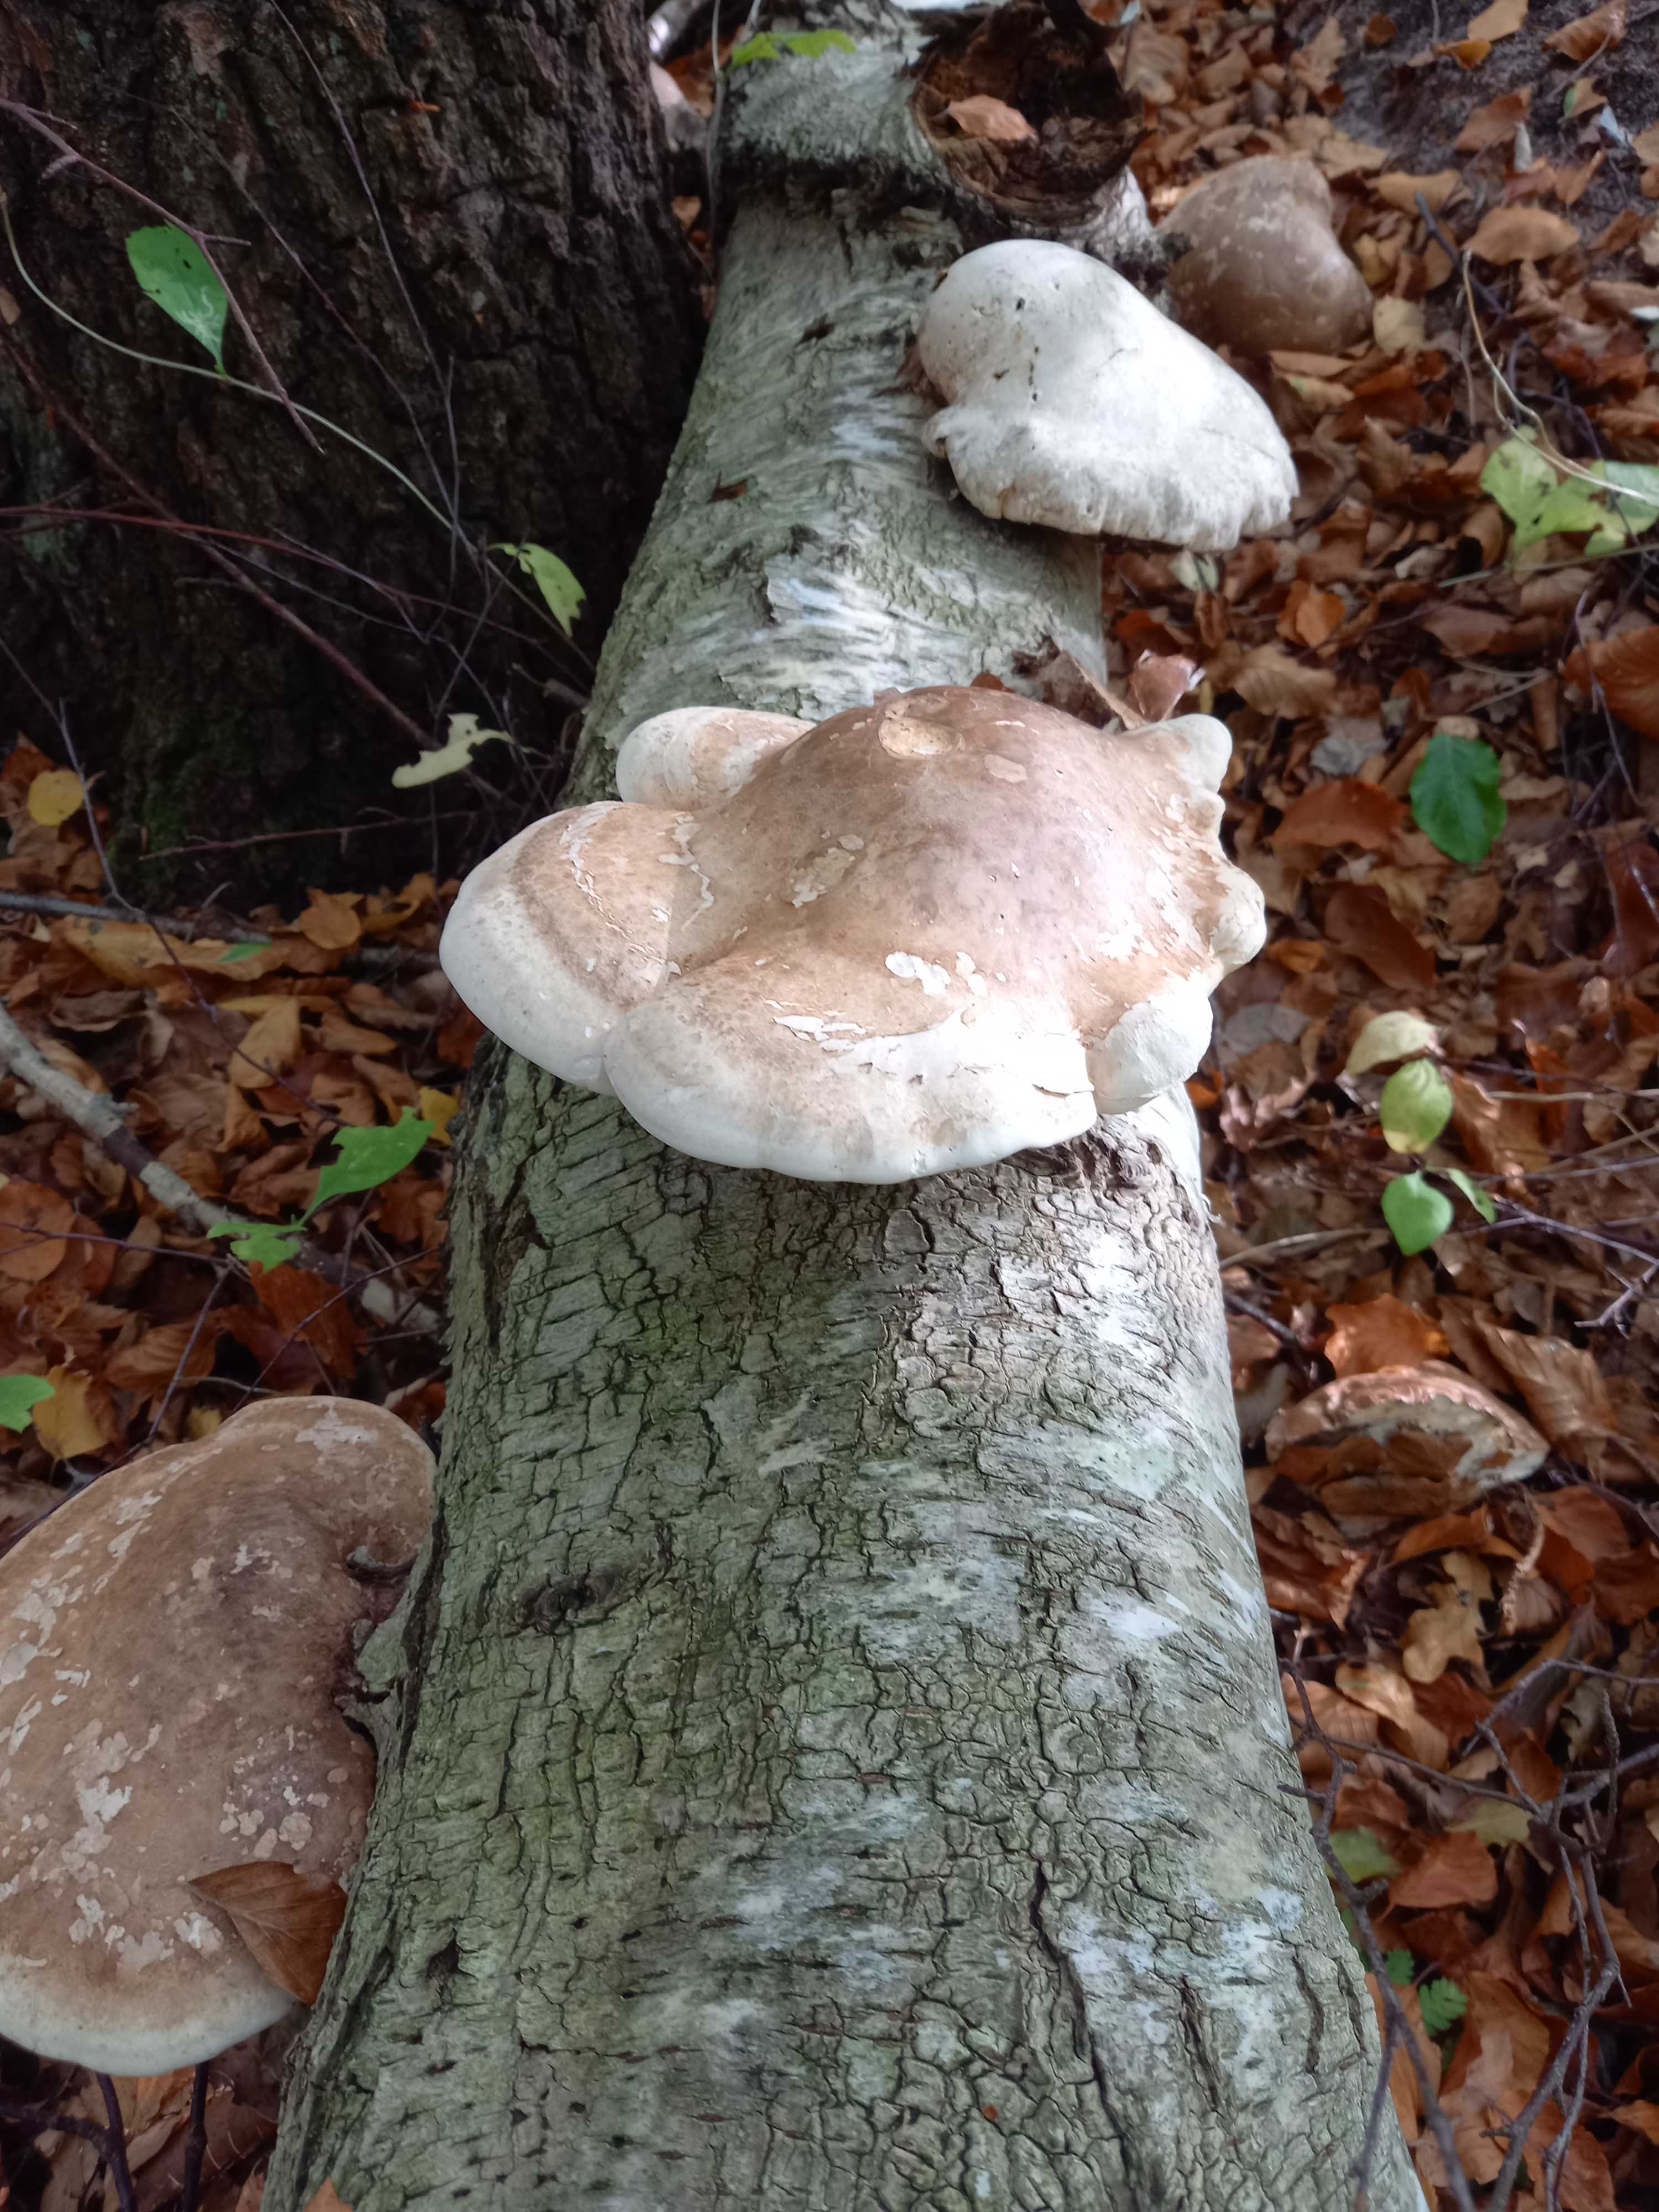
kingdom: Fungi
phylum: Basidiomycota
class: Agaricomycetes
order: Polyporales
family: Fomitopsidaceae
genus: Fomitopsis
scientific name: Fomitopsis betulina
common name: birkeporesvamp
